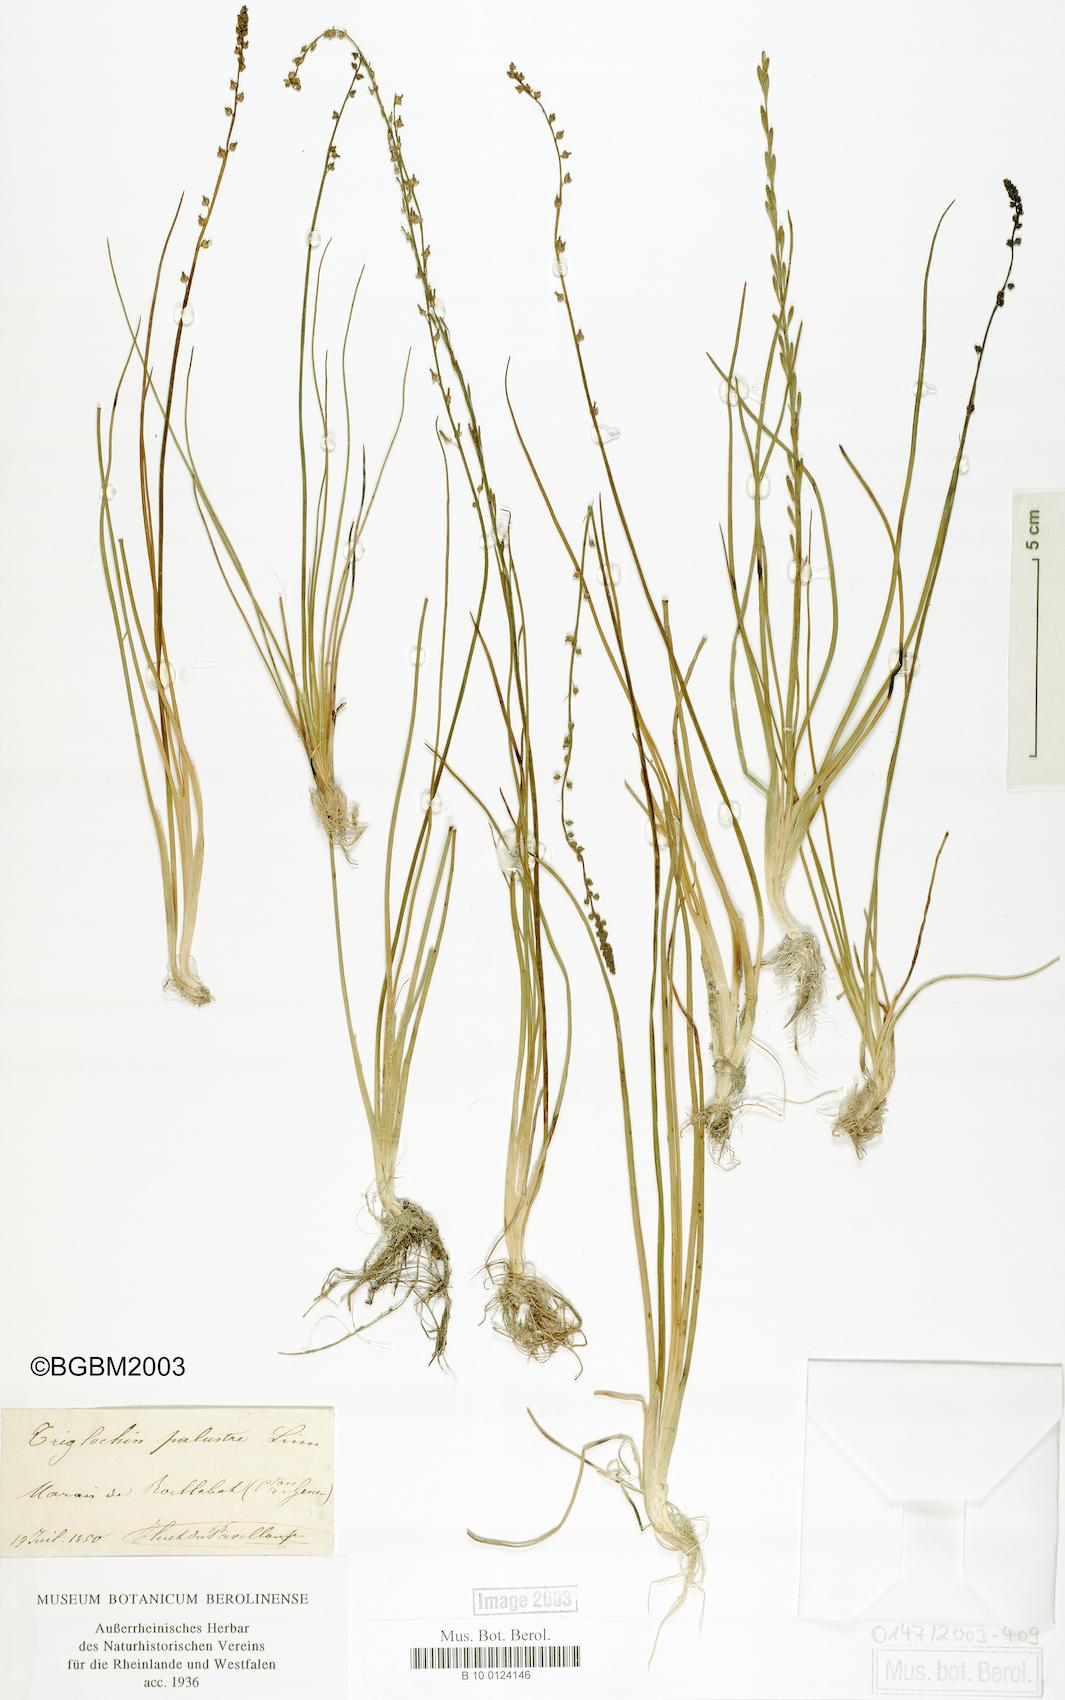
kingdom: Plantae
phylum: Tracheophyta
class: Liliopsida
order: Alismatales
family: Juncaginaceae
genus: Triglochin
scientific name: Triglochin palustris
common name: Marsh arrowgrass
